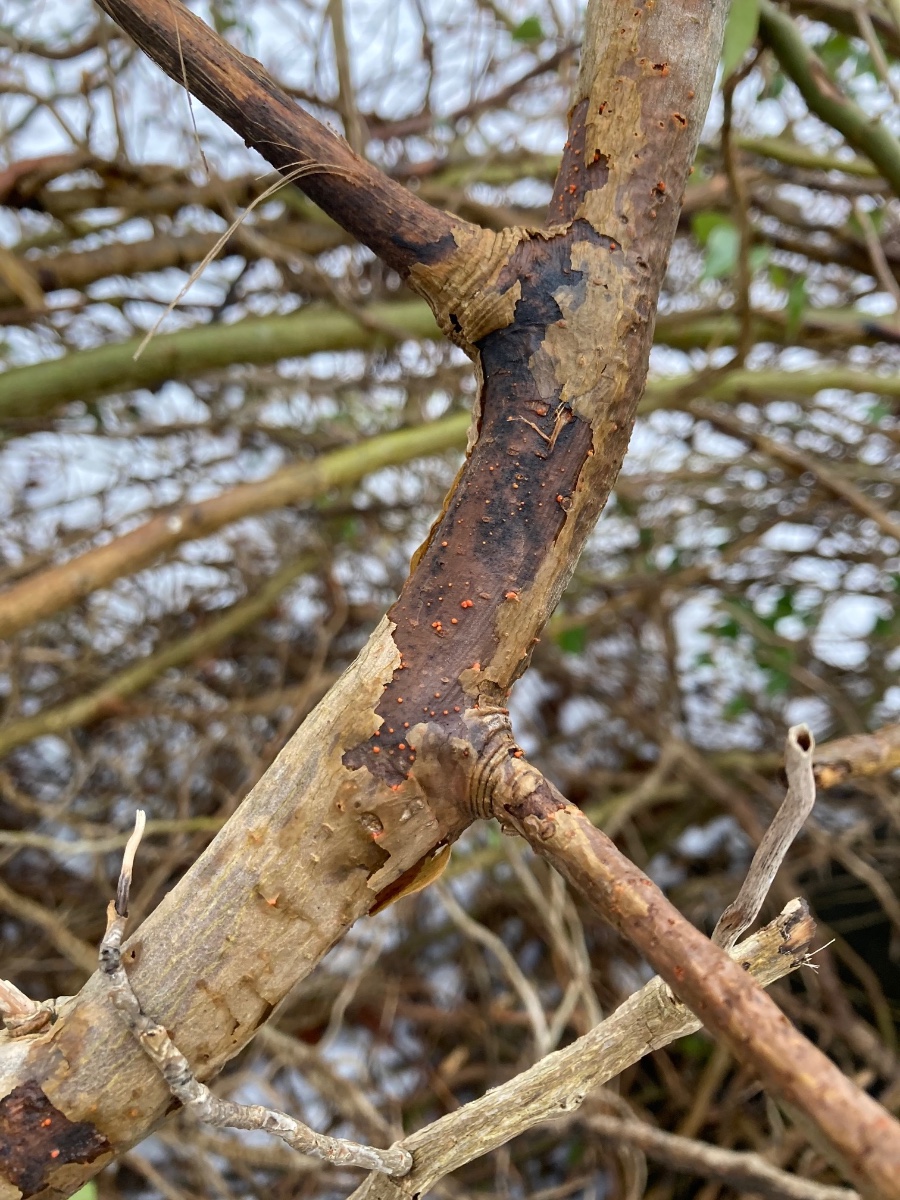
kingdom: Fungi
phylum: Ascomycota
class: Sordariomycetes
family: Thyridiaceae
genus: Thyronectria
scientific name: Thyronectria sinopica
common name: vedbend-cinnobersvamp
